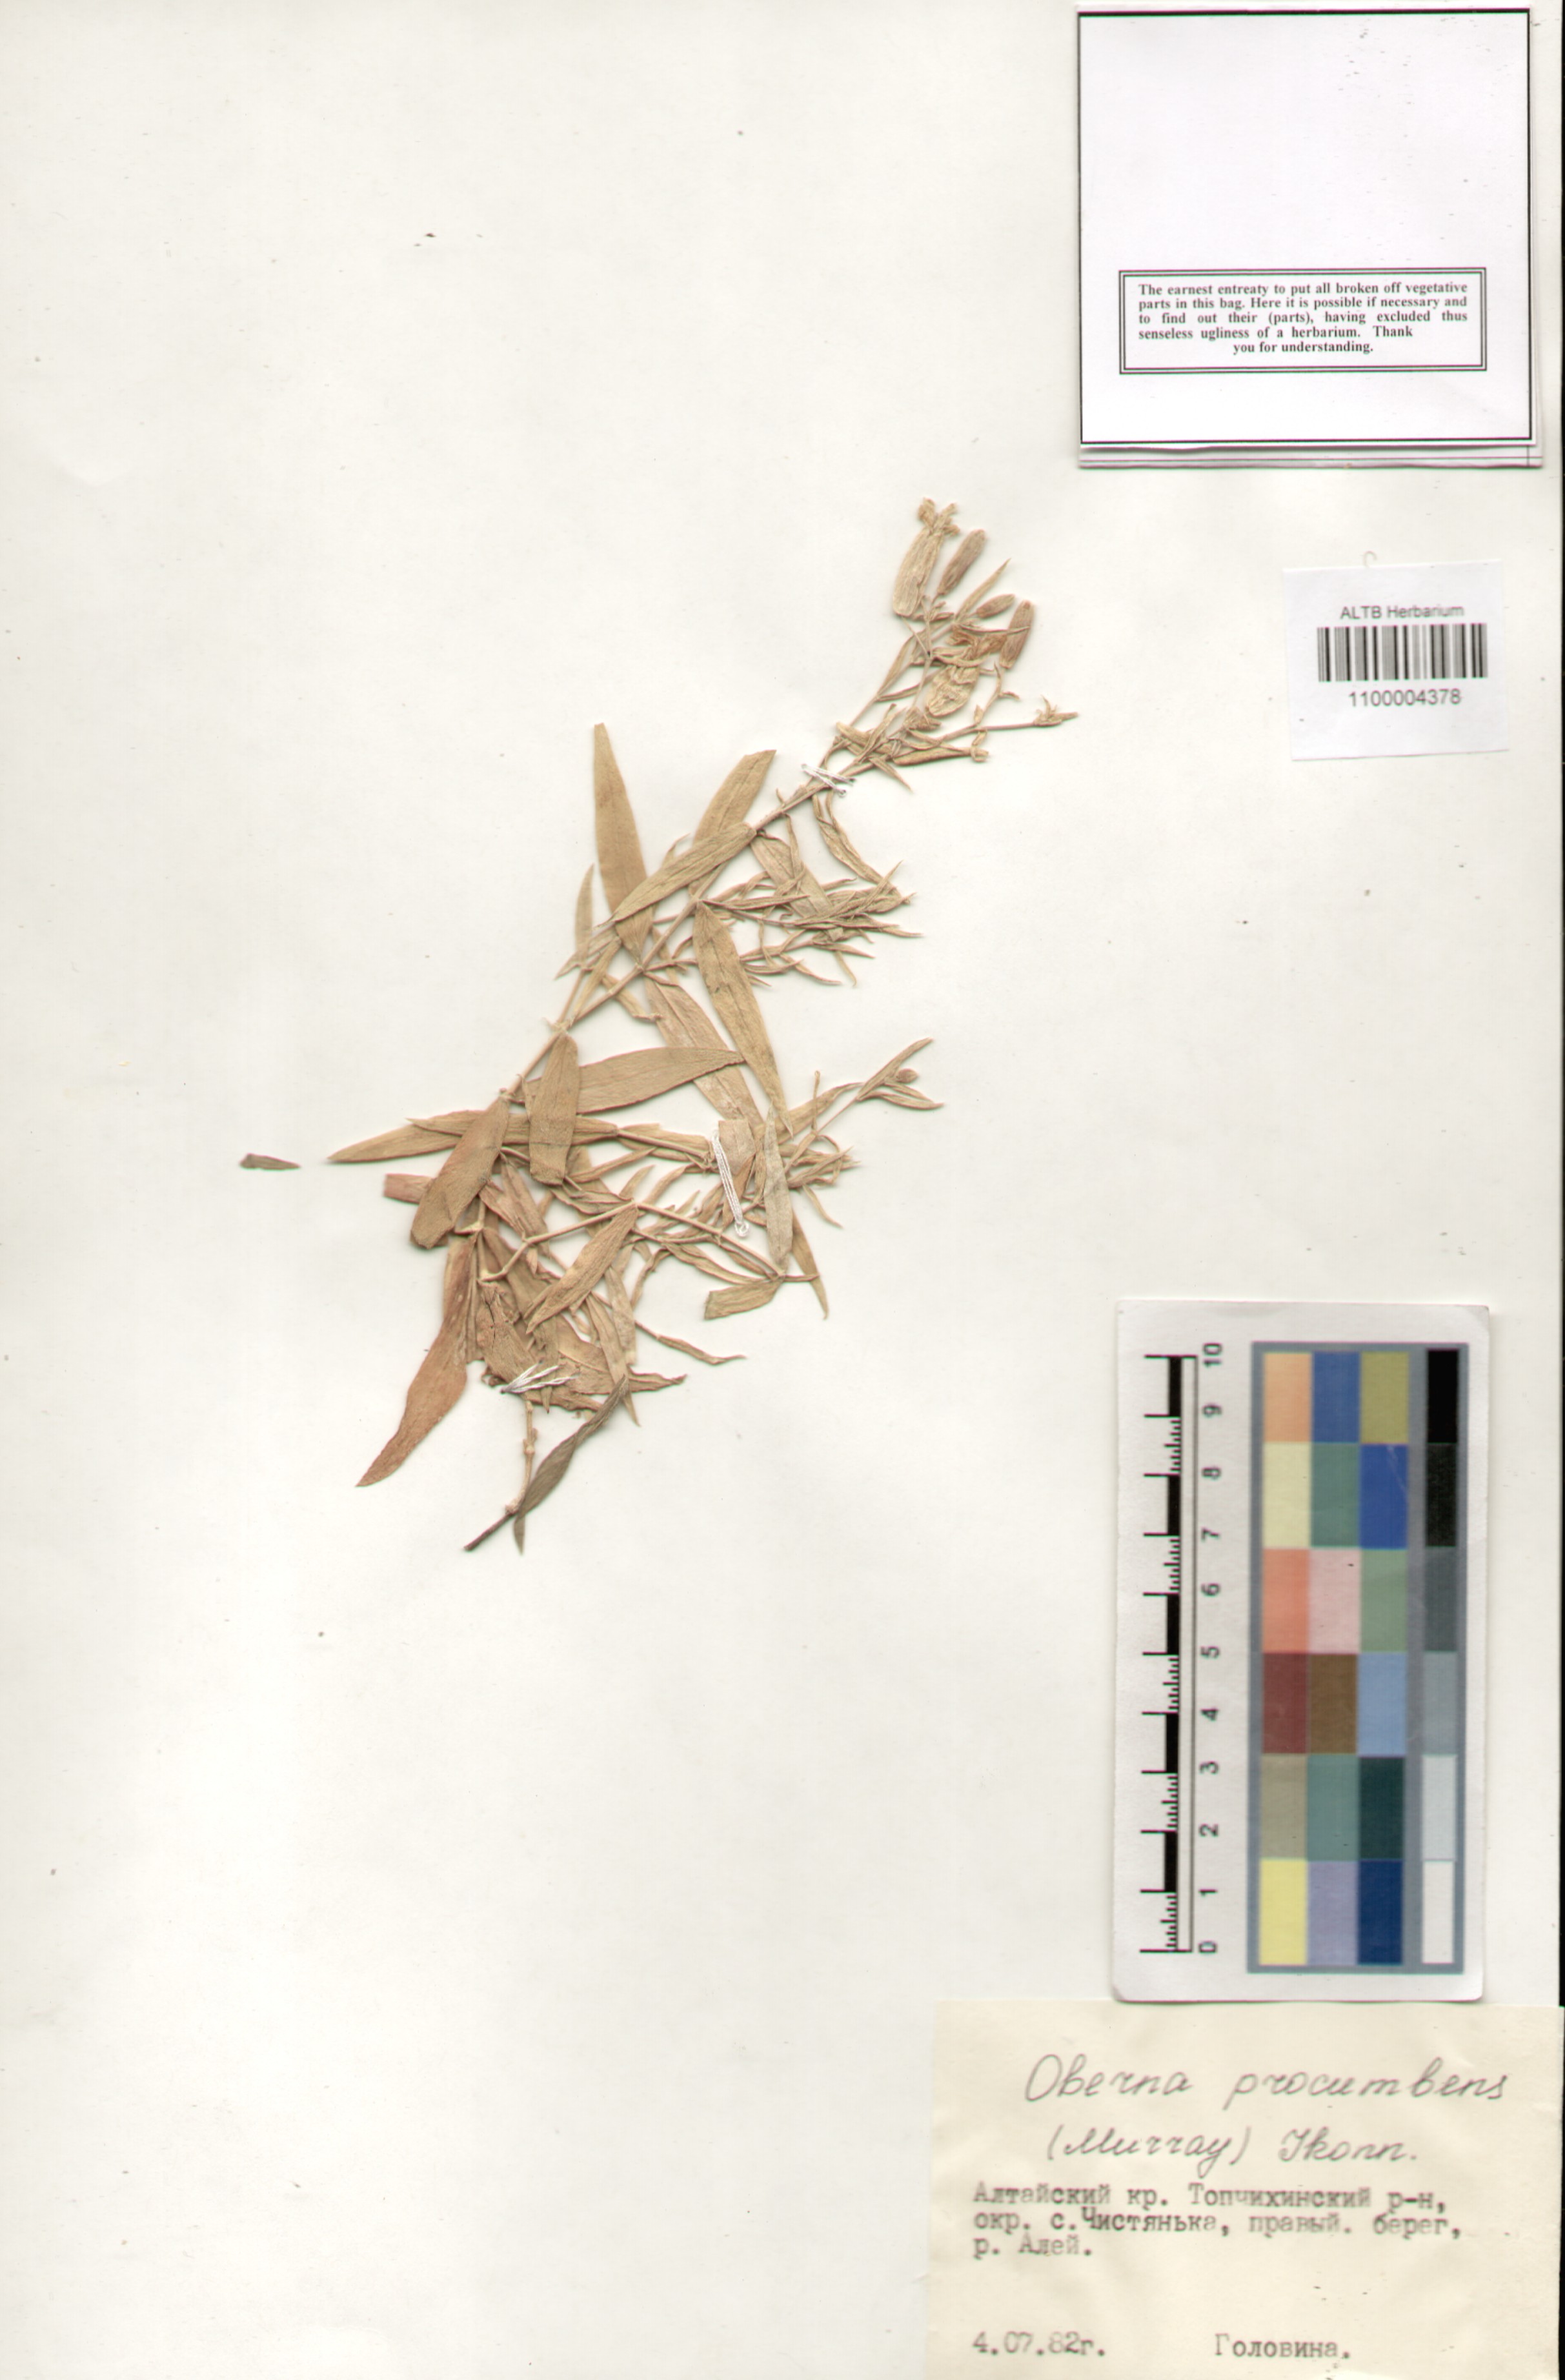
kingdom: Plantae
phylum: Tracheophyta
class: Magnoliopsida
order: Caryophyllales
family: Caryophyllaceae
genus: Silene
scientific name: Silene procumbens
